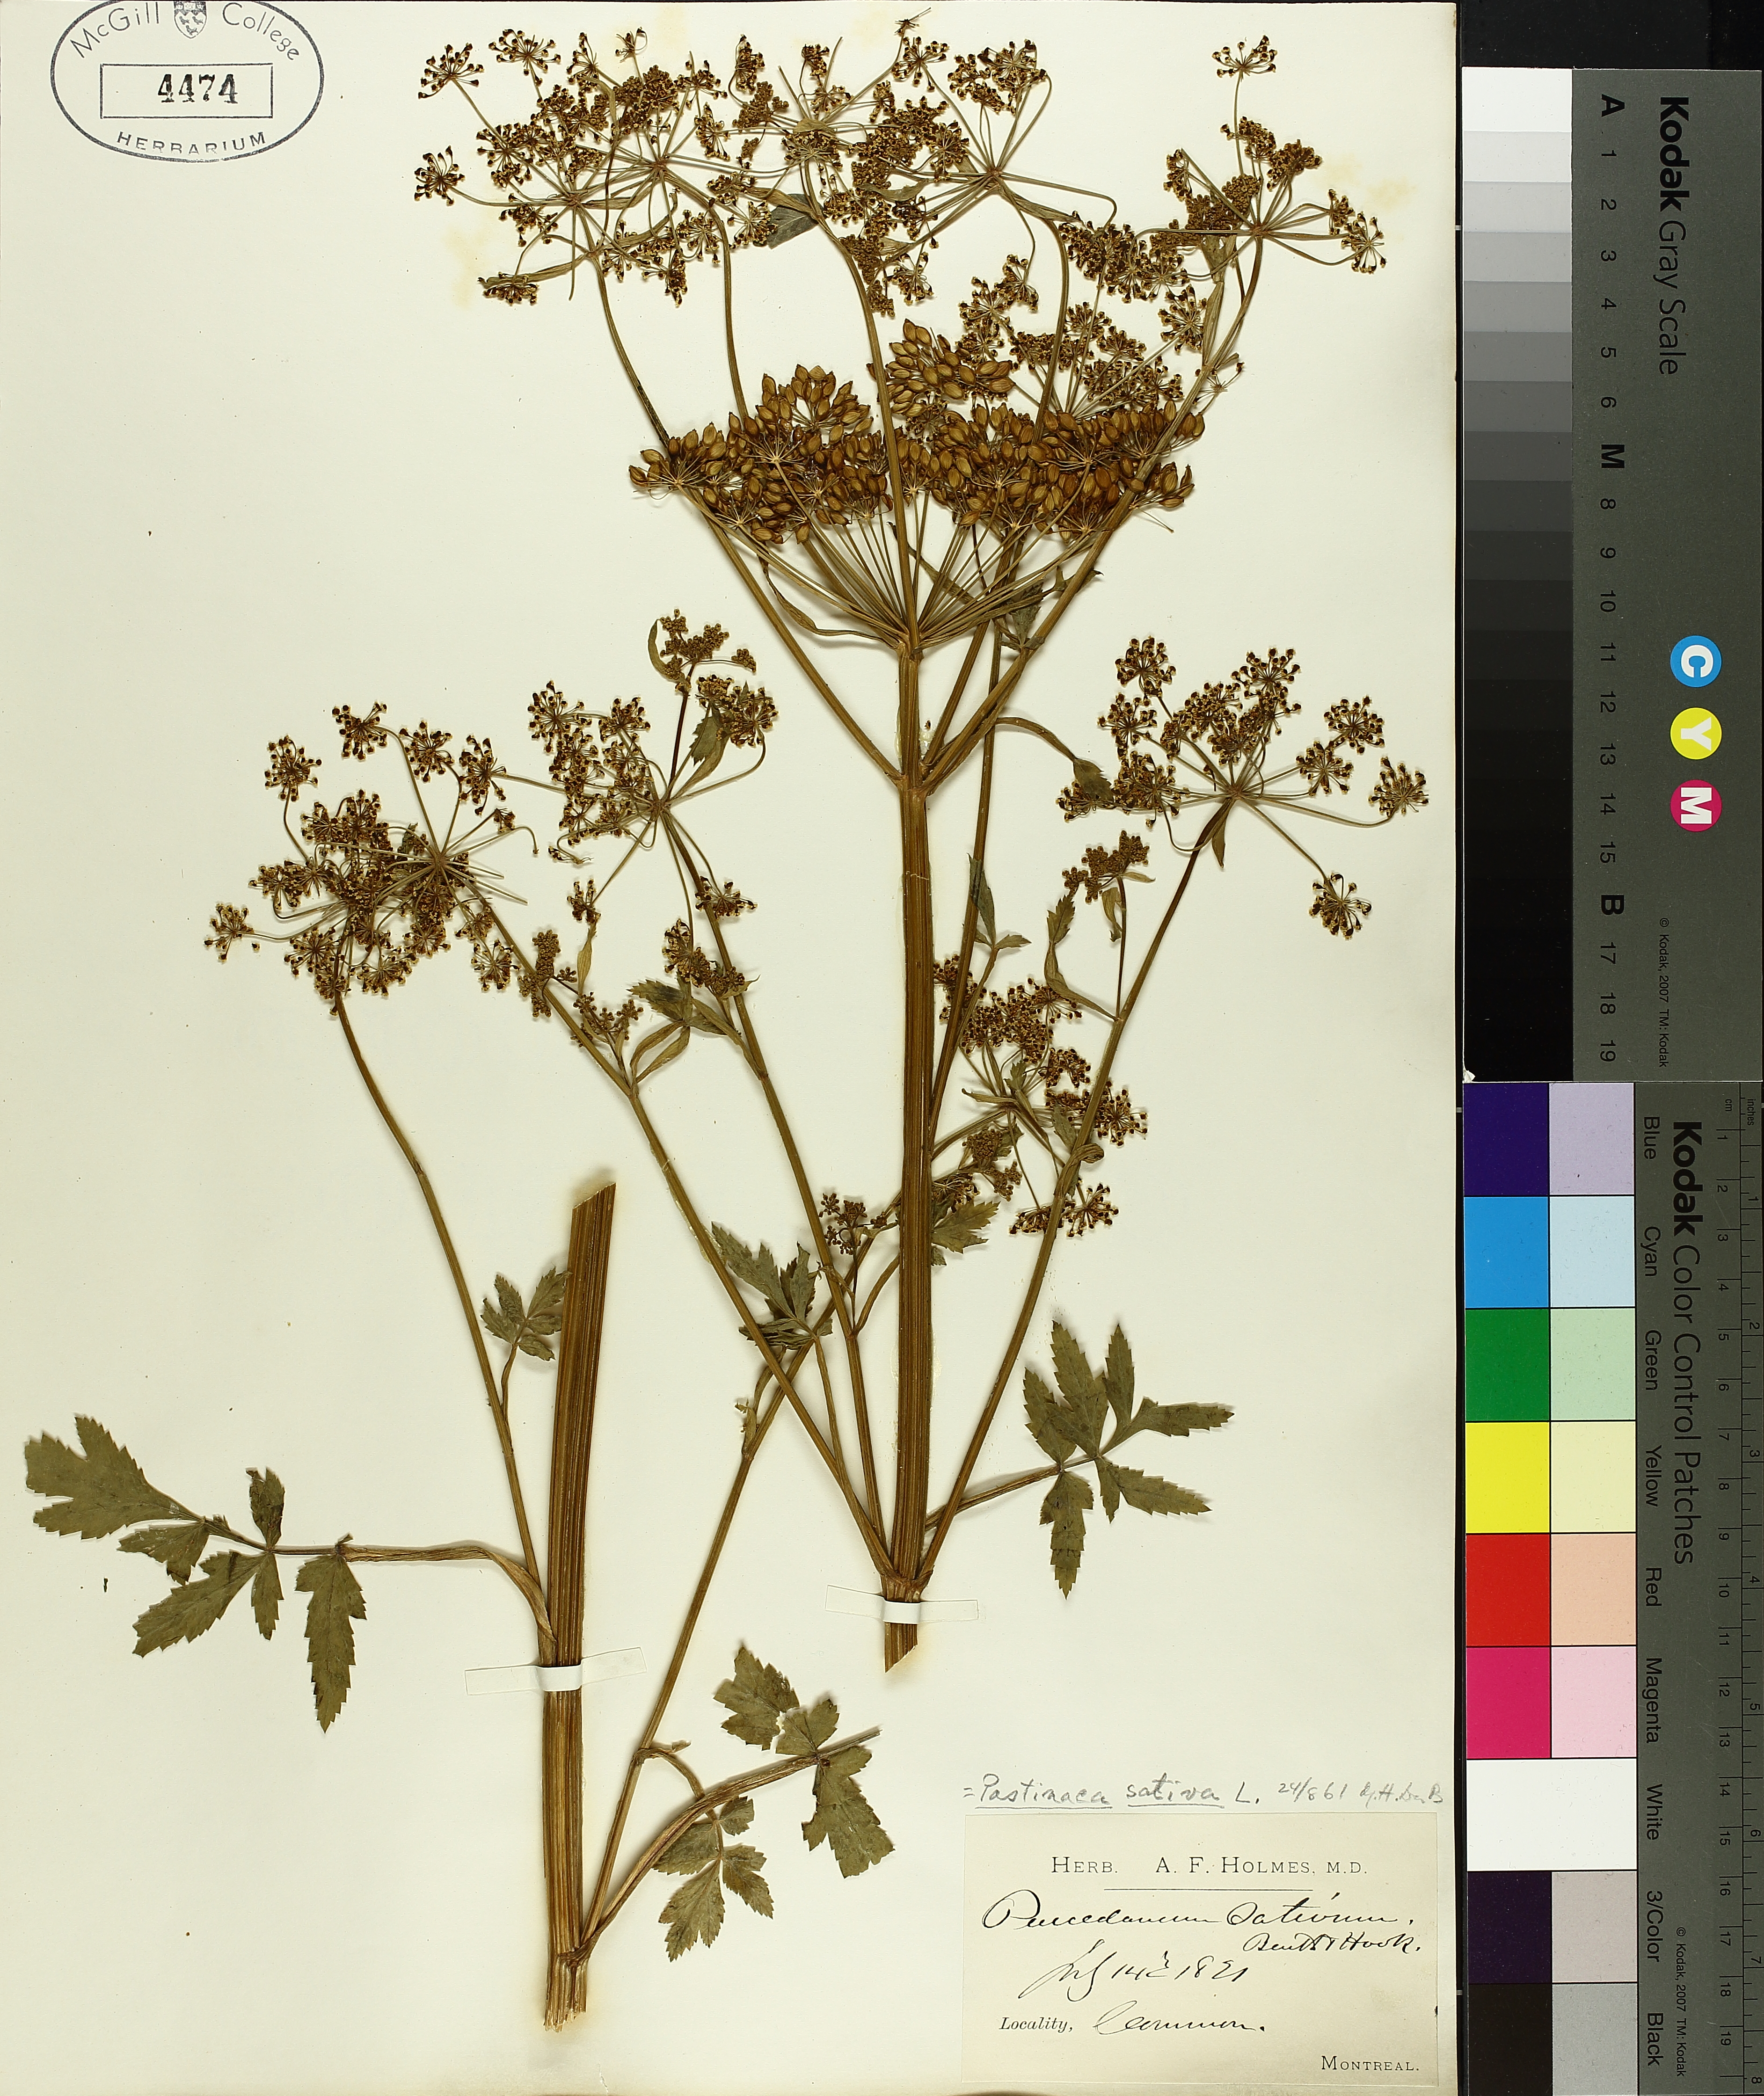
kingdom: Plantae
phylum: Tracheophyta
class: Magnoliopsida
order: Apiales
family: Apiaceae
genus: Osmorhiza
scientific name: Osmorhiza longistylis
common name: Smooth sweet cicely
